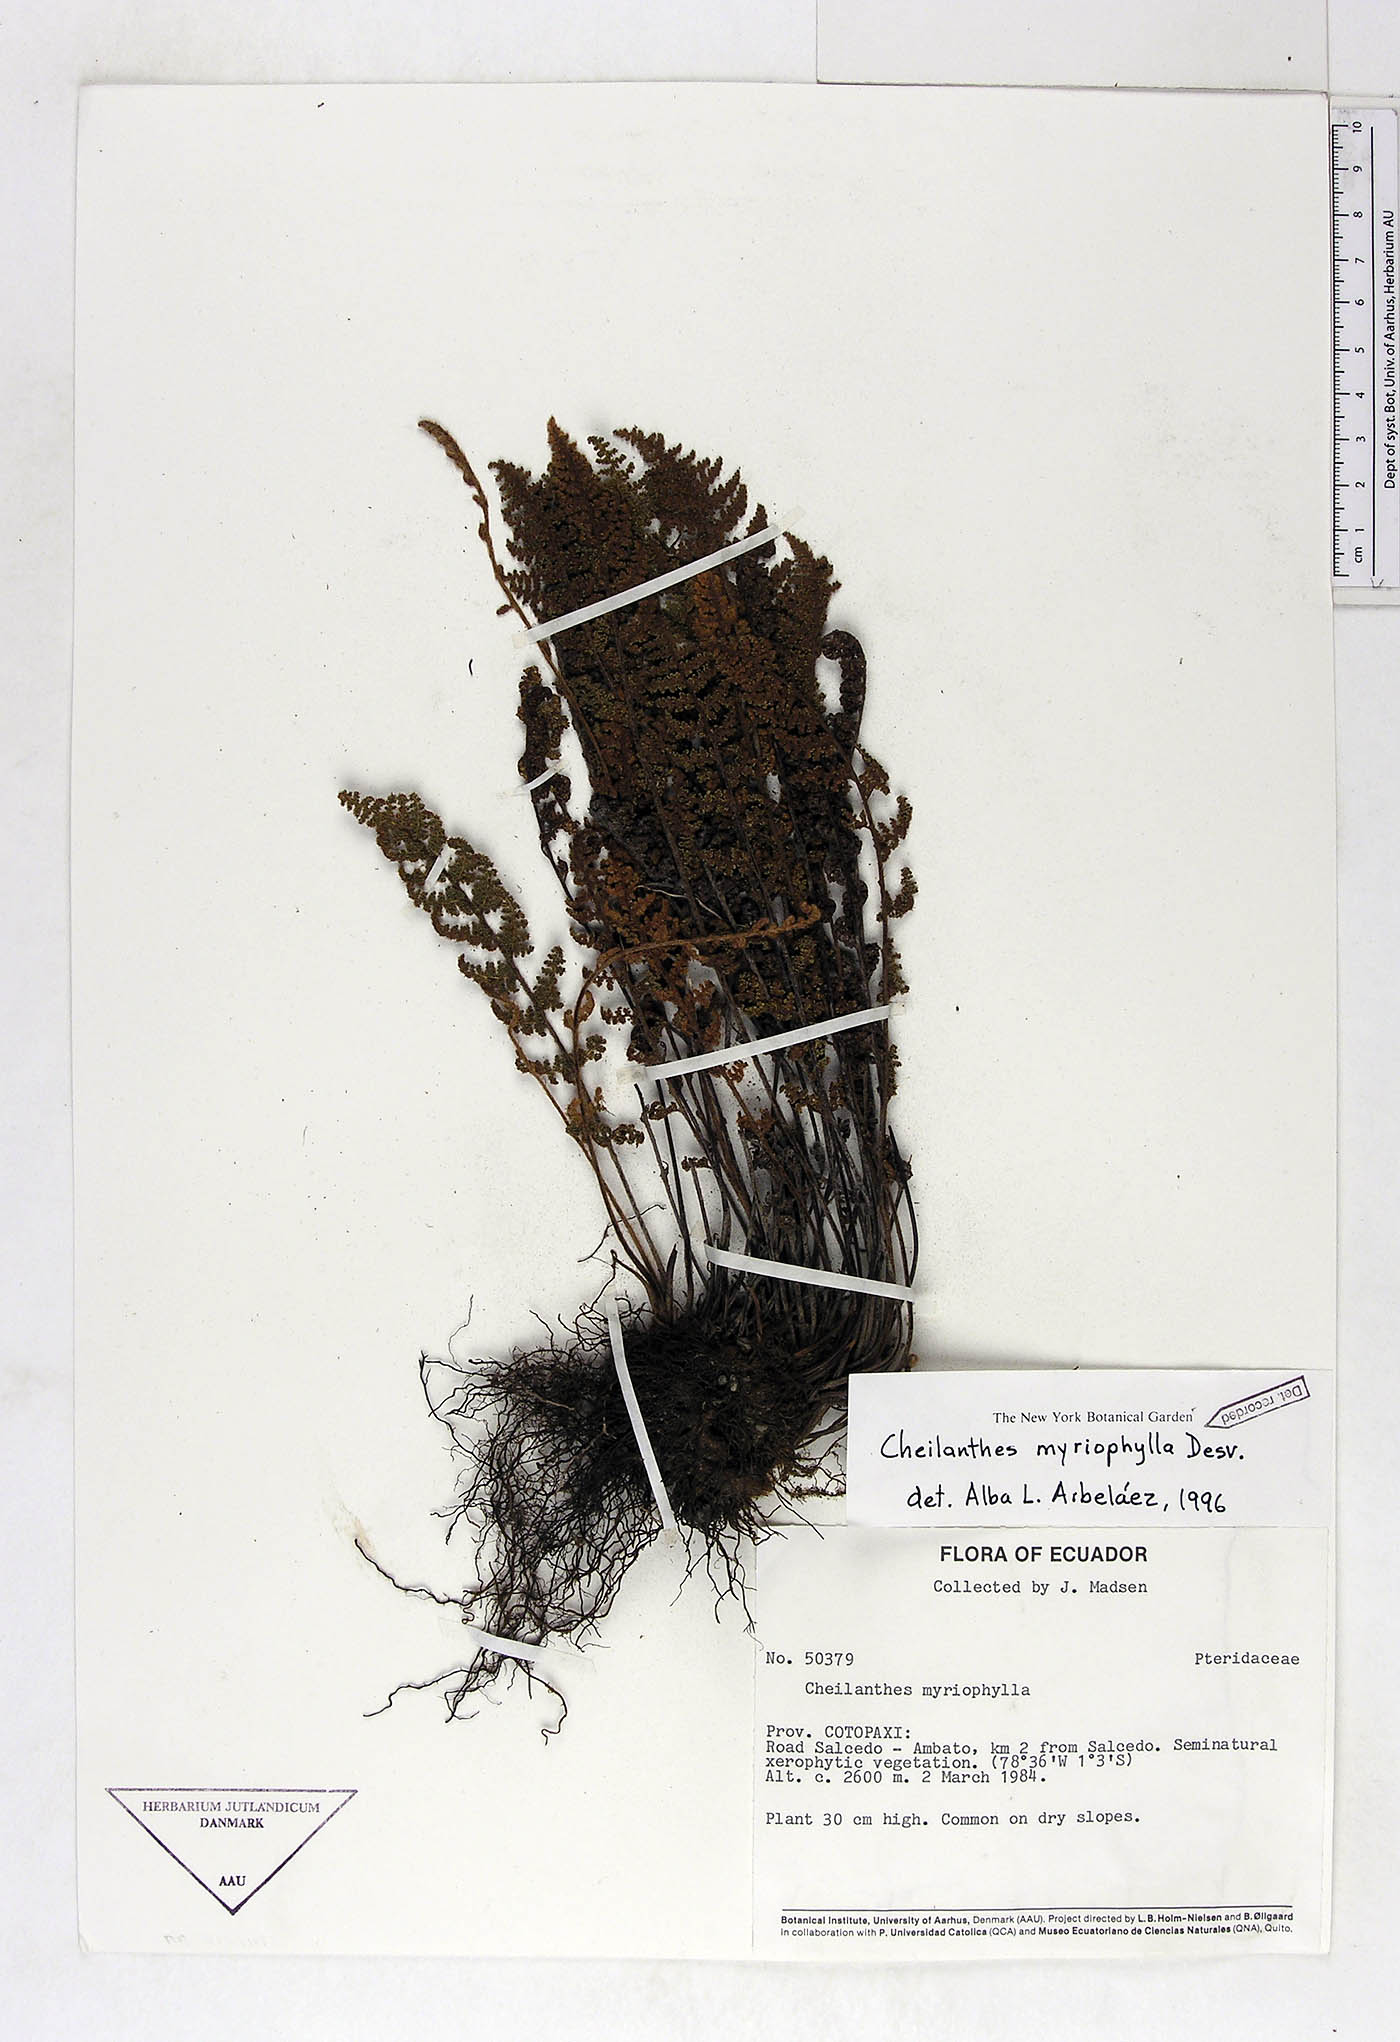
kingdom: Plantae
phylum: Tracheophyta
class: Polypodiopsida
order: Polypodiales
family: Pteridaceae
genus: Myriopteris
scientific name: Myriopteris myriophylla
